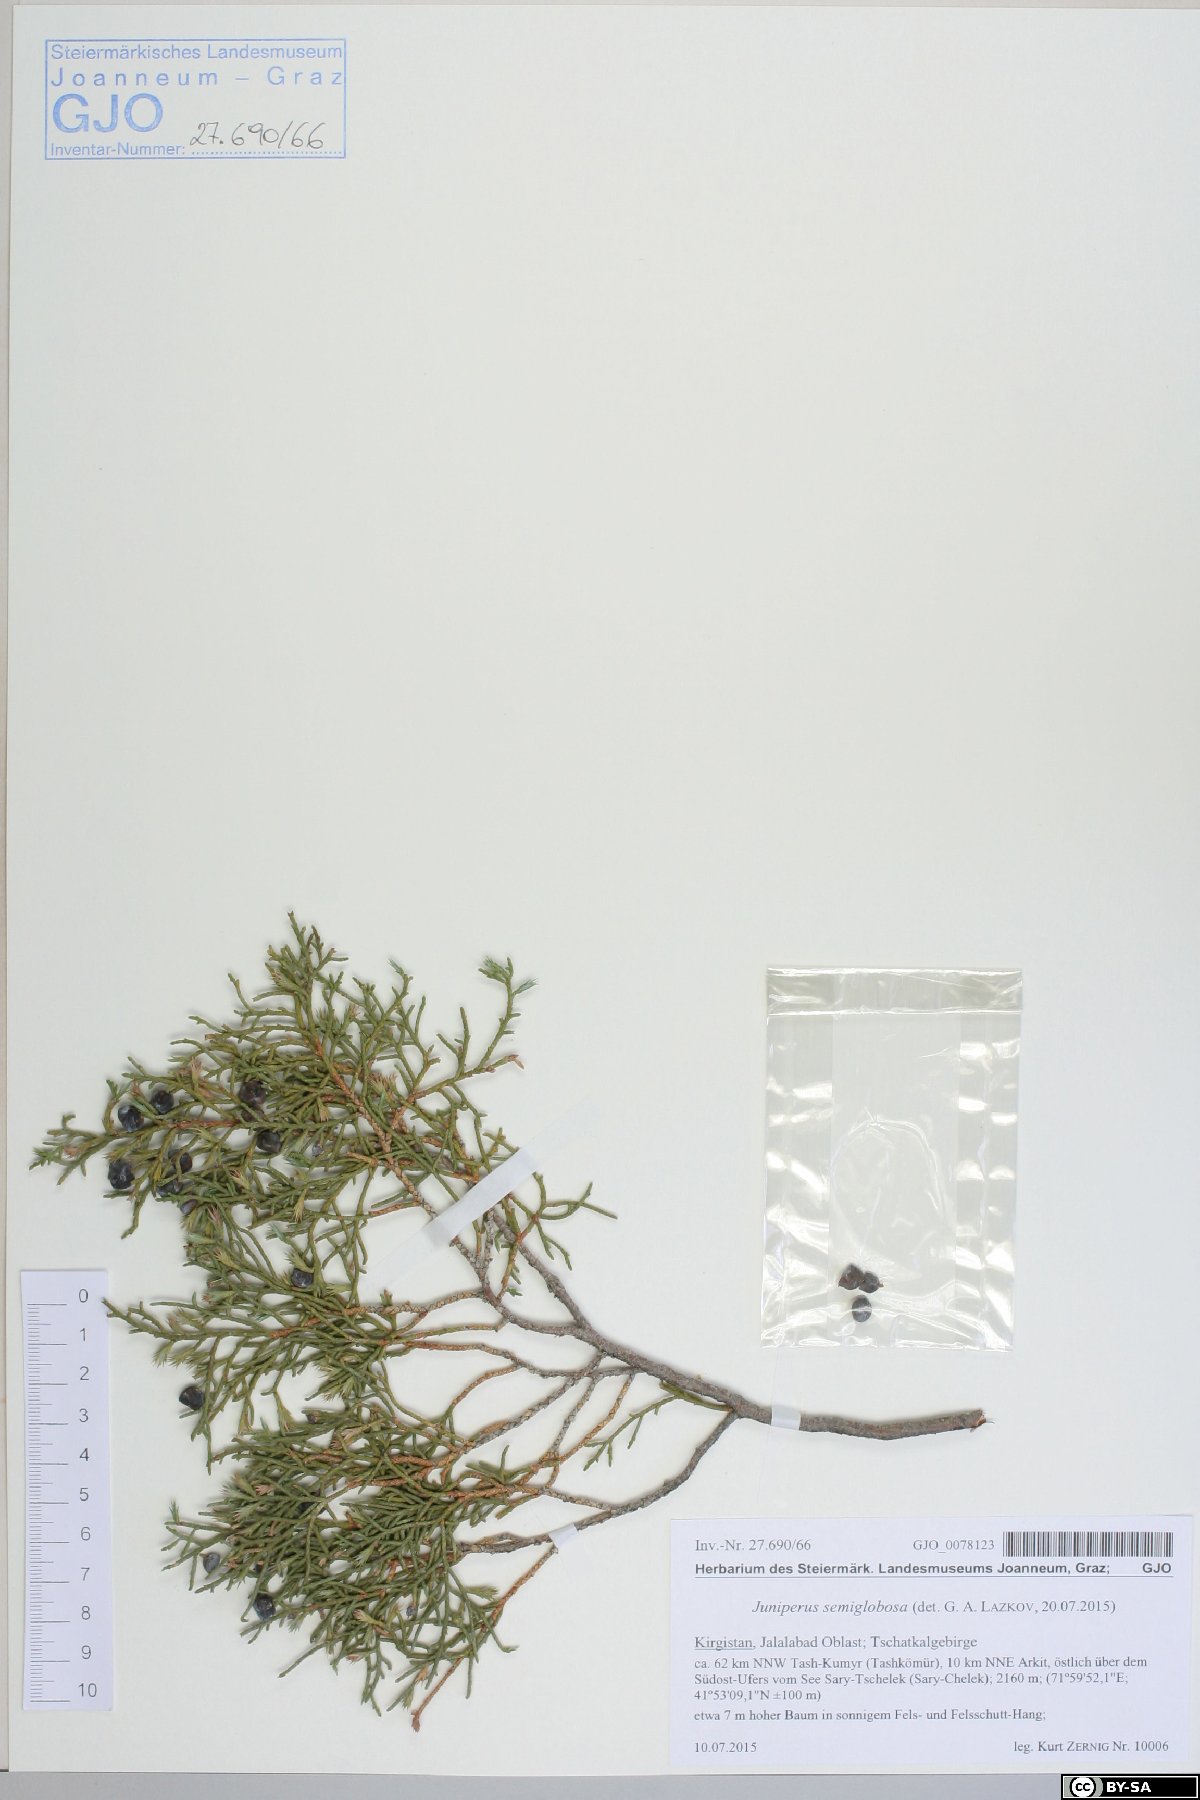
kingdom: Plantae
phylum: Tracheophyta
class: Pinopsida
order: Pinales
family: Cupressaceae
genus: Juniperus
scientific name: Juniperus semiglobosa
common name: Pencil cedar
